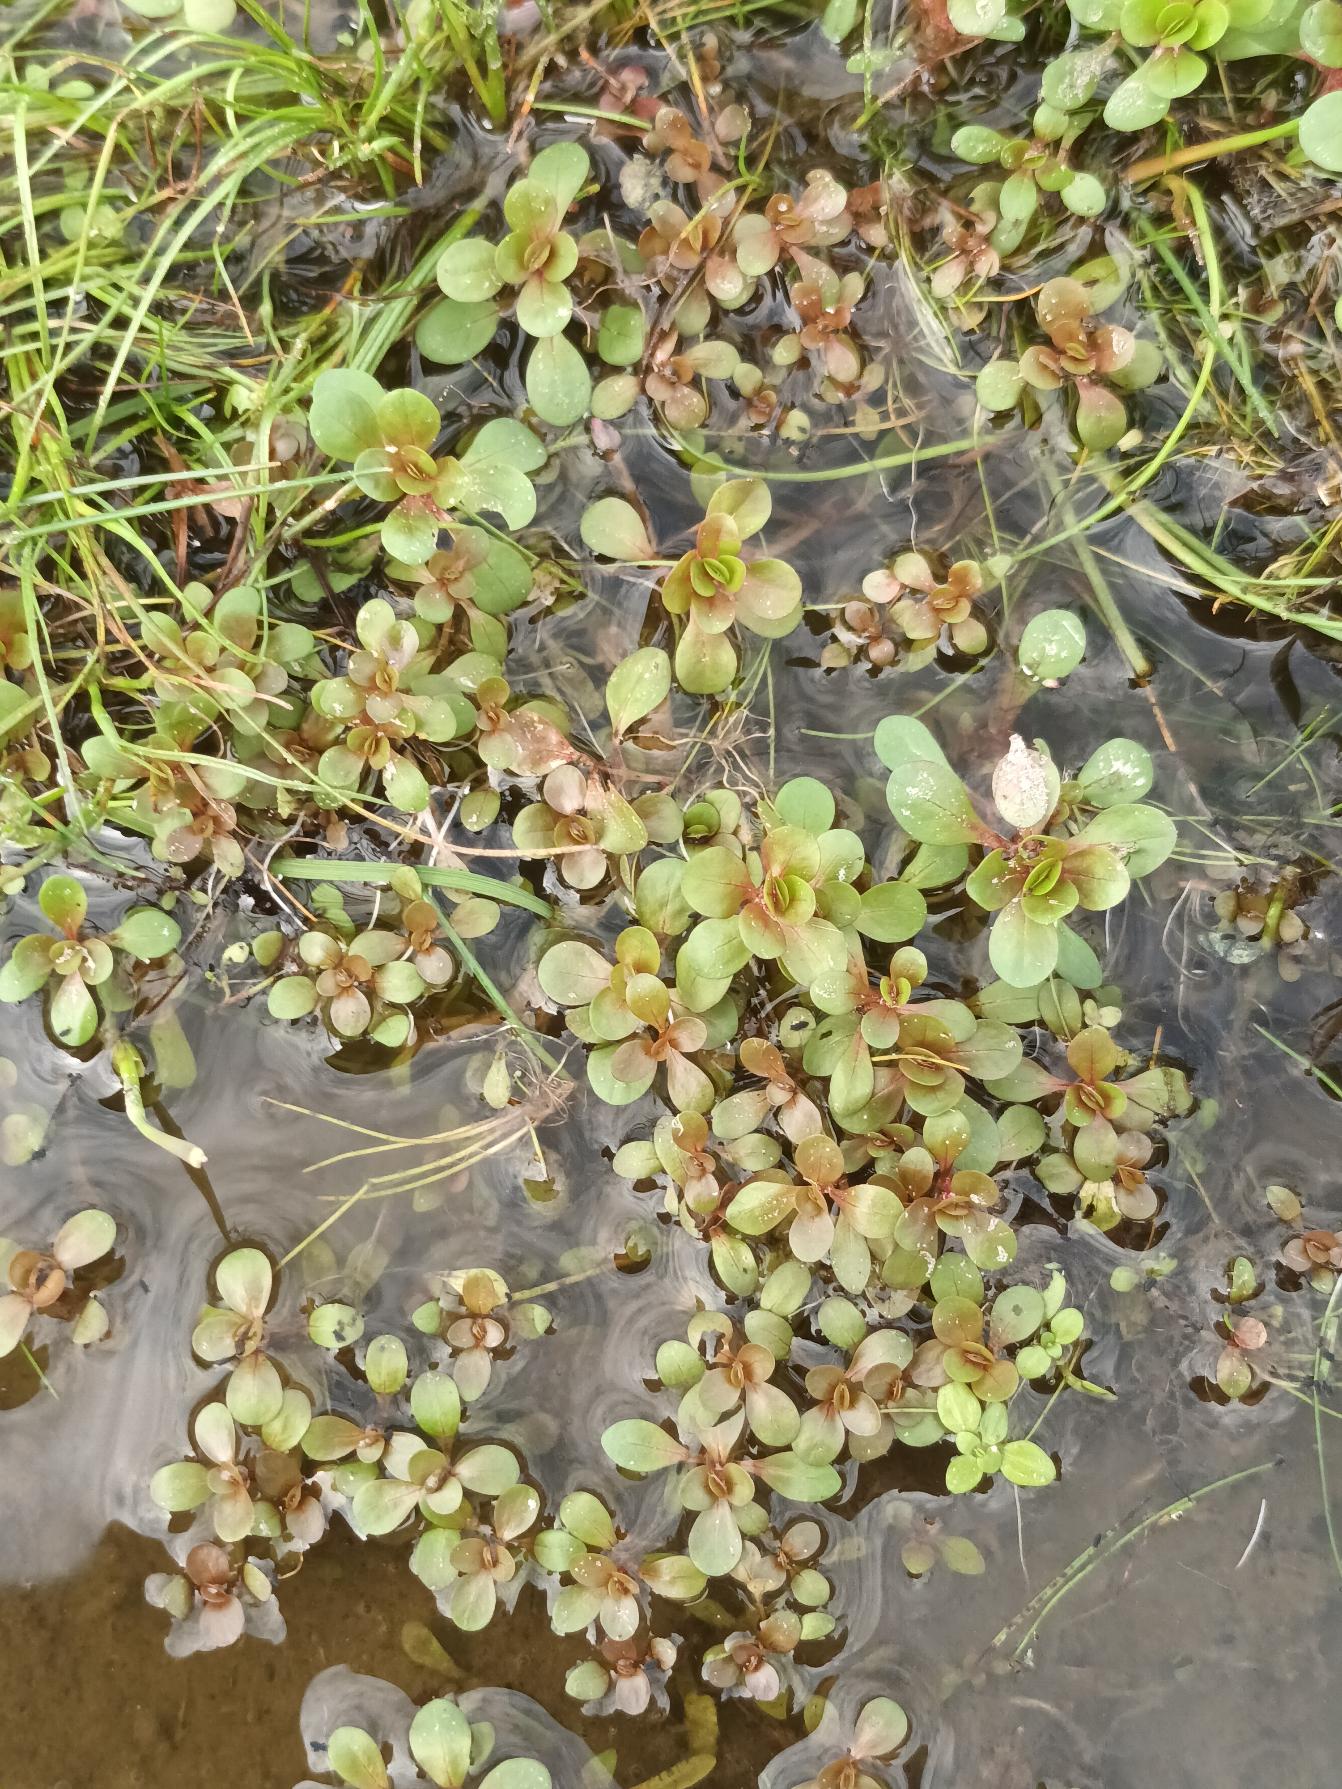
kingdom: Plantae
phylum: Tracheophyta
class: Magnoliopsida
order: Myrtales
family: Lythraceae
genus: Lythrum
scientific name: Lythrum portula
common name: Vandportulak
